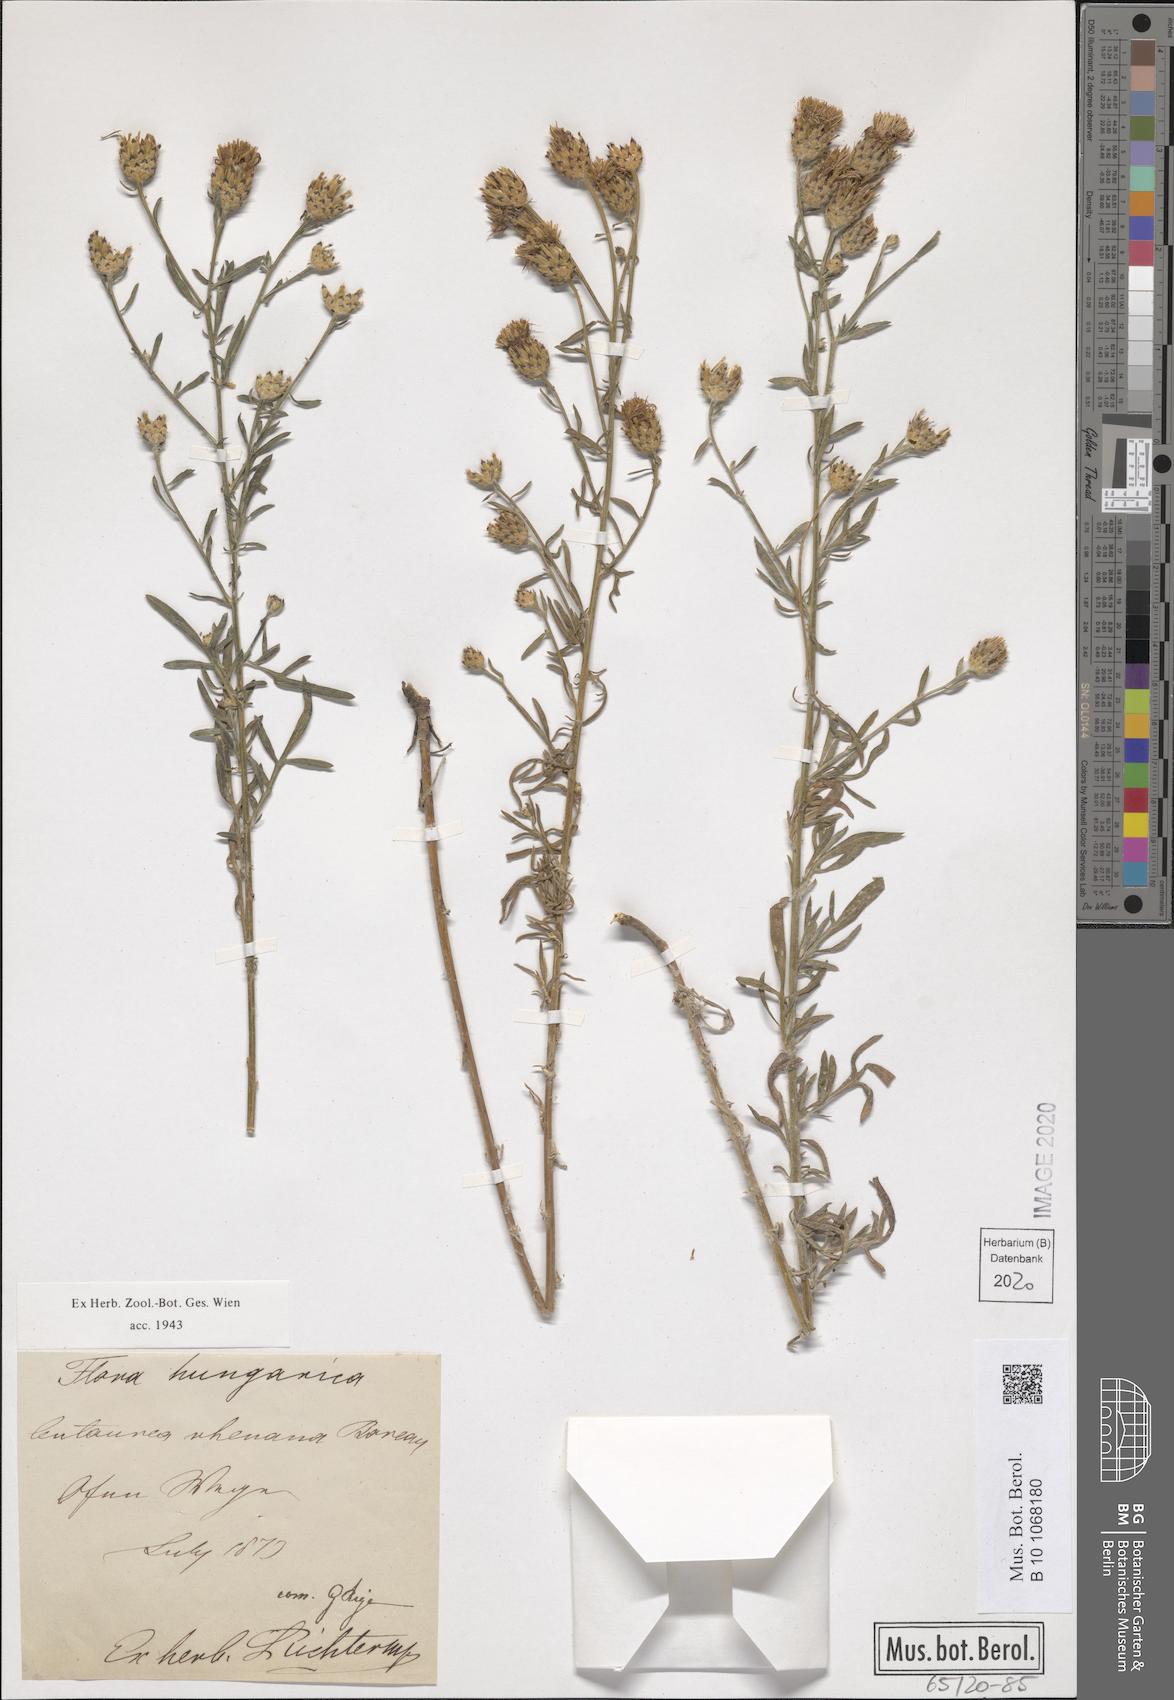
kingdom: Plantae
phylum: Tracheophyta
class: Magnoliopsida
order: Asterales
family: Asteraceae
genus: Centaurea
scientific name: Centaurea stoebe
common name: Spotted knapweed
